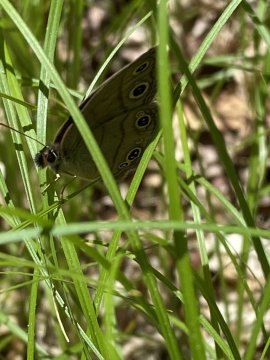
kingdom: Animalia
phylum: Arthropoda
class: Insecta
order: Lepidoptera
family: Nymphalidae
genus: Euptychia
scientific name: Euptychia cymela
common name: Little Wood Satyr
